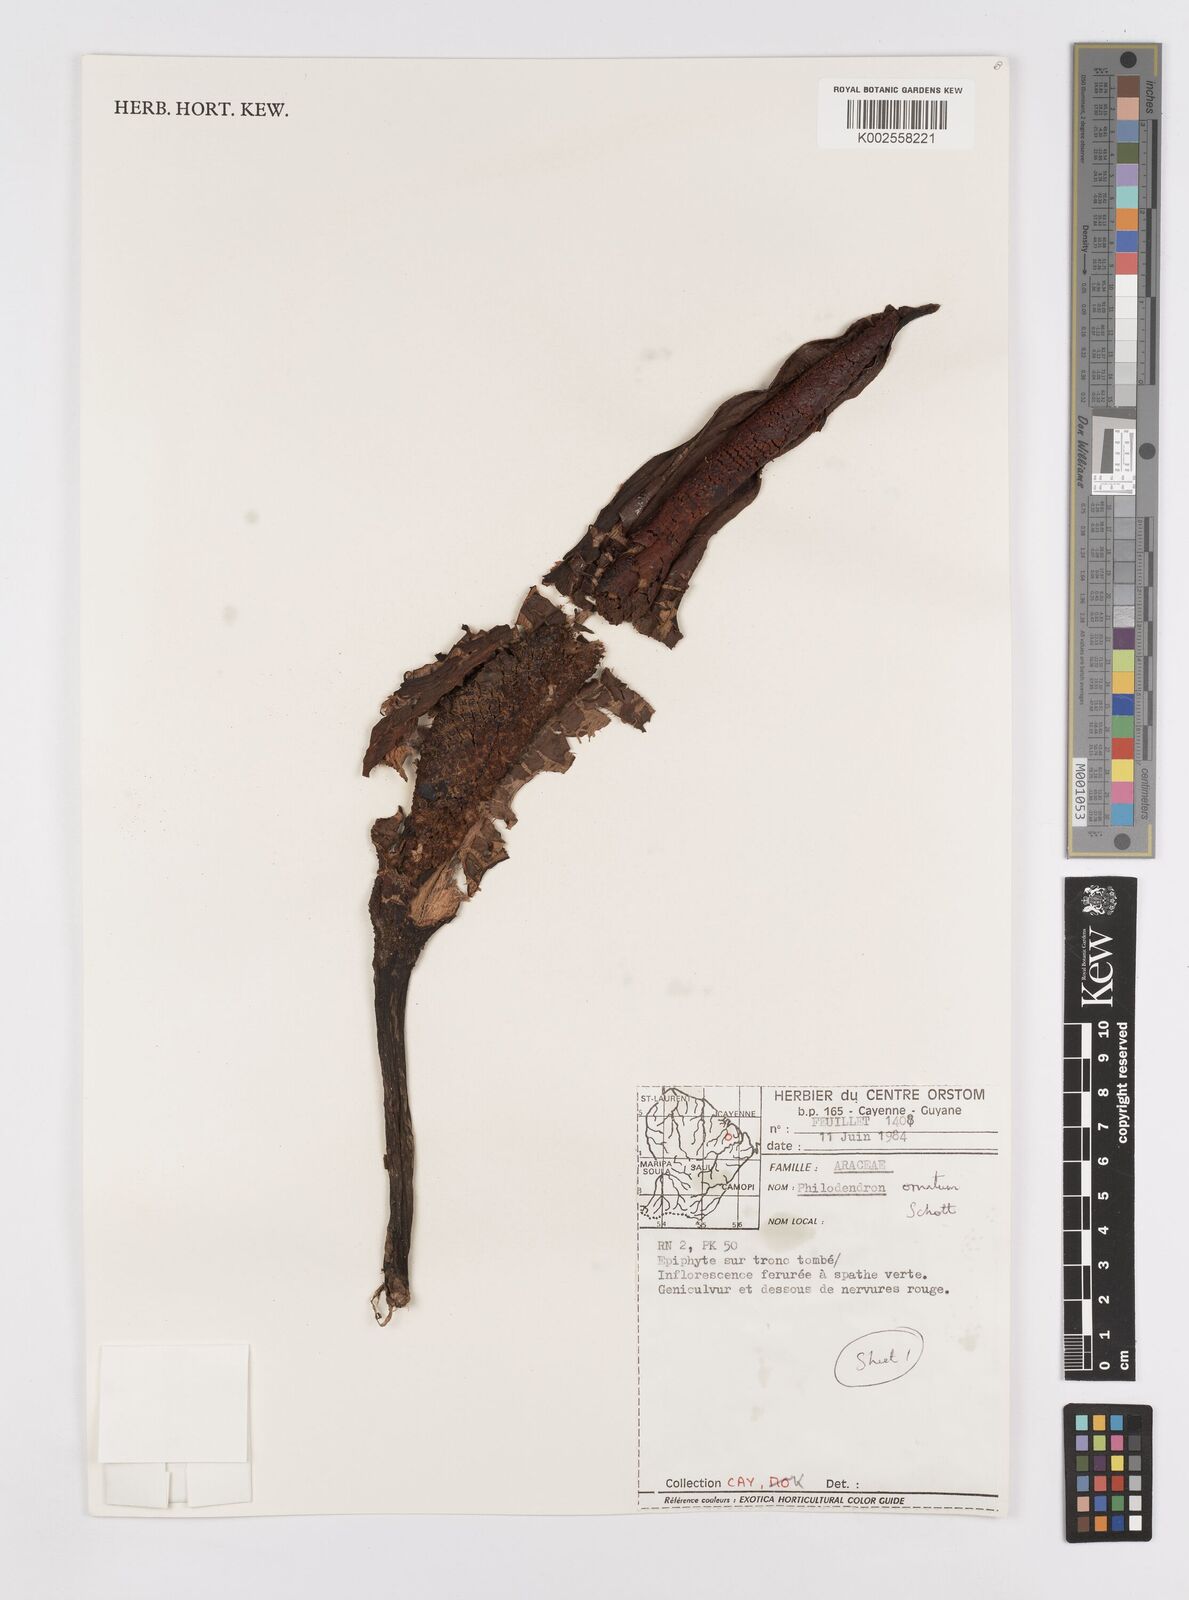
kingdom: Plantae
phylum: Tracheophyta
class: Liliopsida
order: Alismatales
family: Araceae
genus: Philodendron
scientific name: Philodendron ornatum
